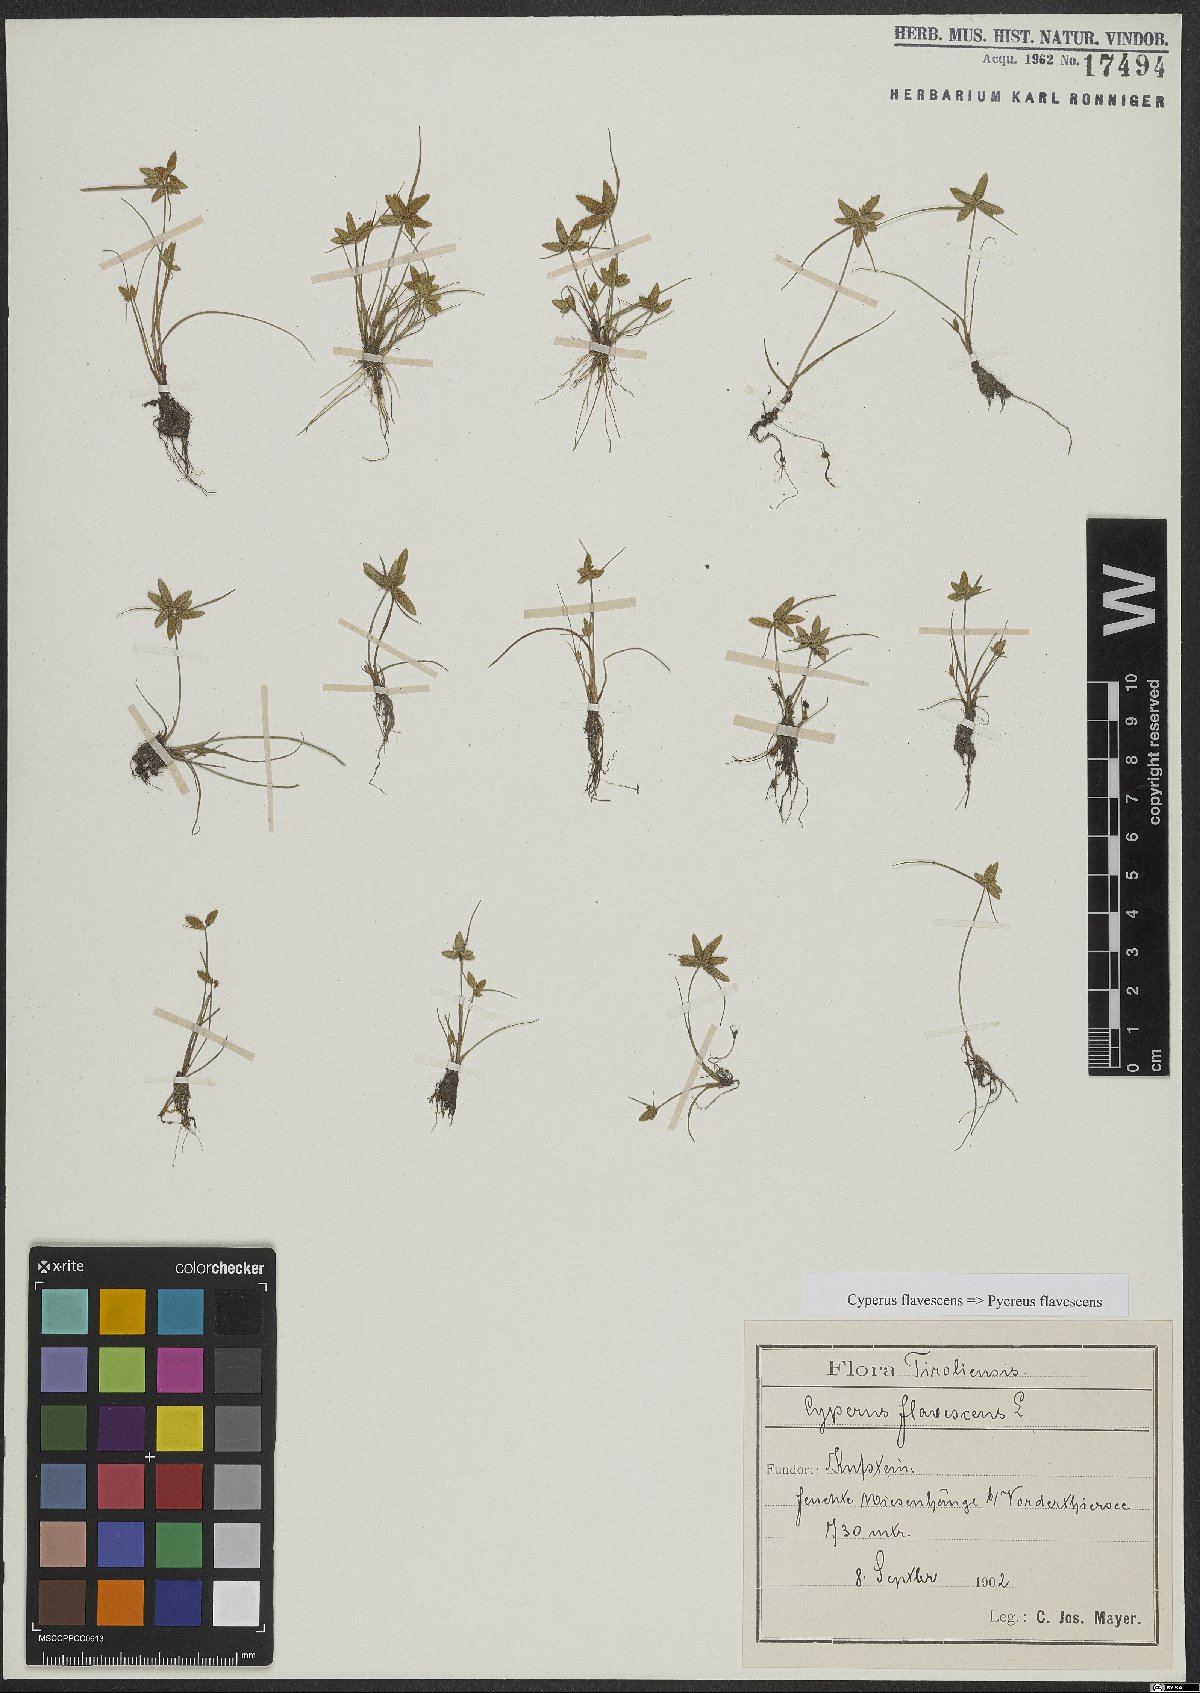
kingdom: Plantae
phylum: Tracheophyta
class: Liliopsida
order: Poales
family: Cyperaceae
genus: Cyperus
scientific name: Cyperus flavescens
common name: Yellow galingale
